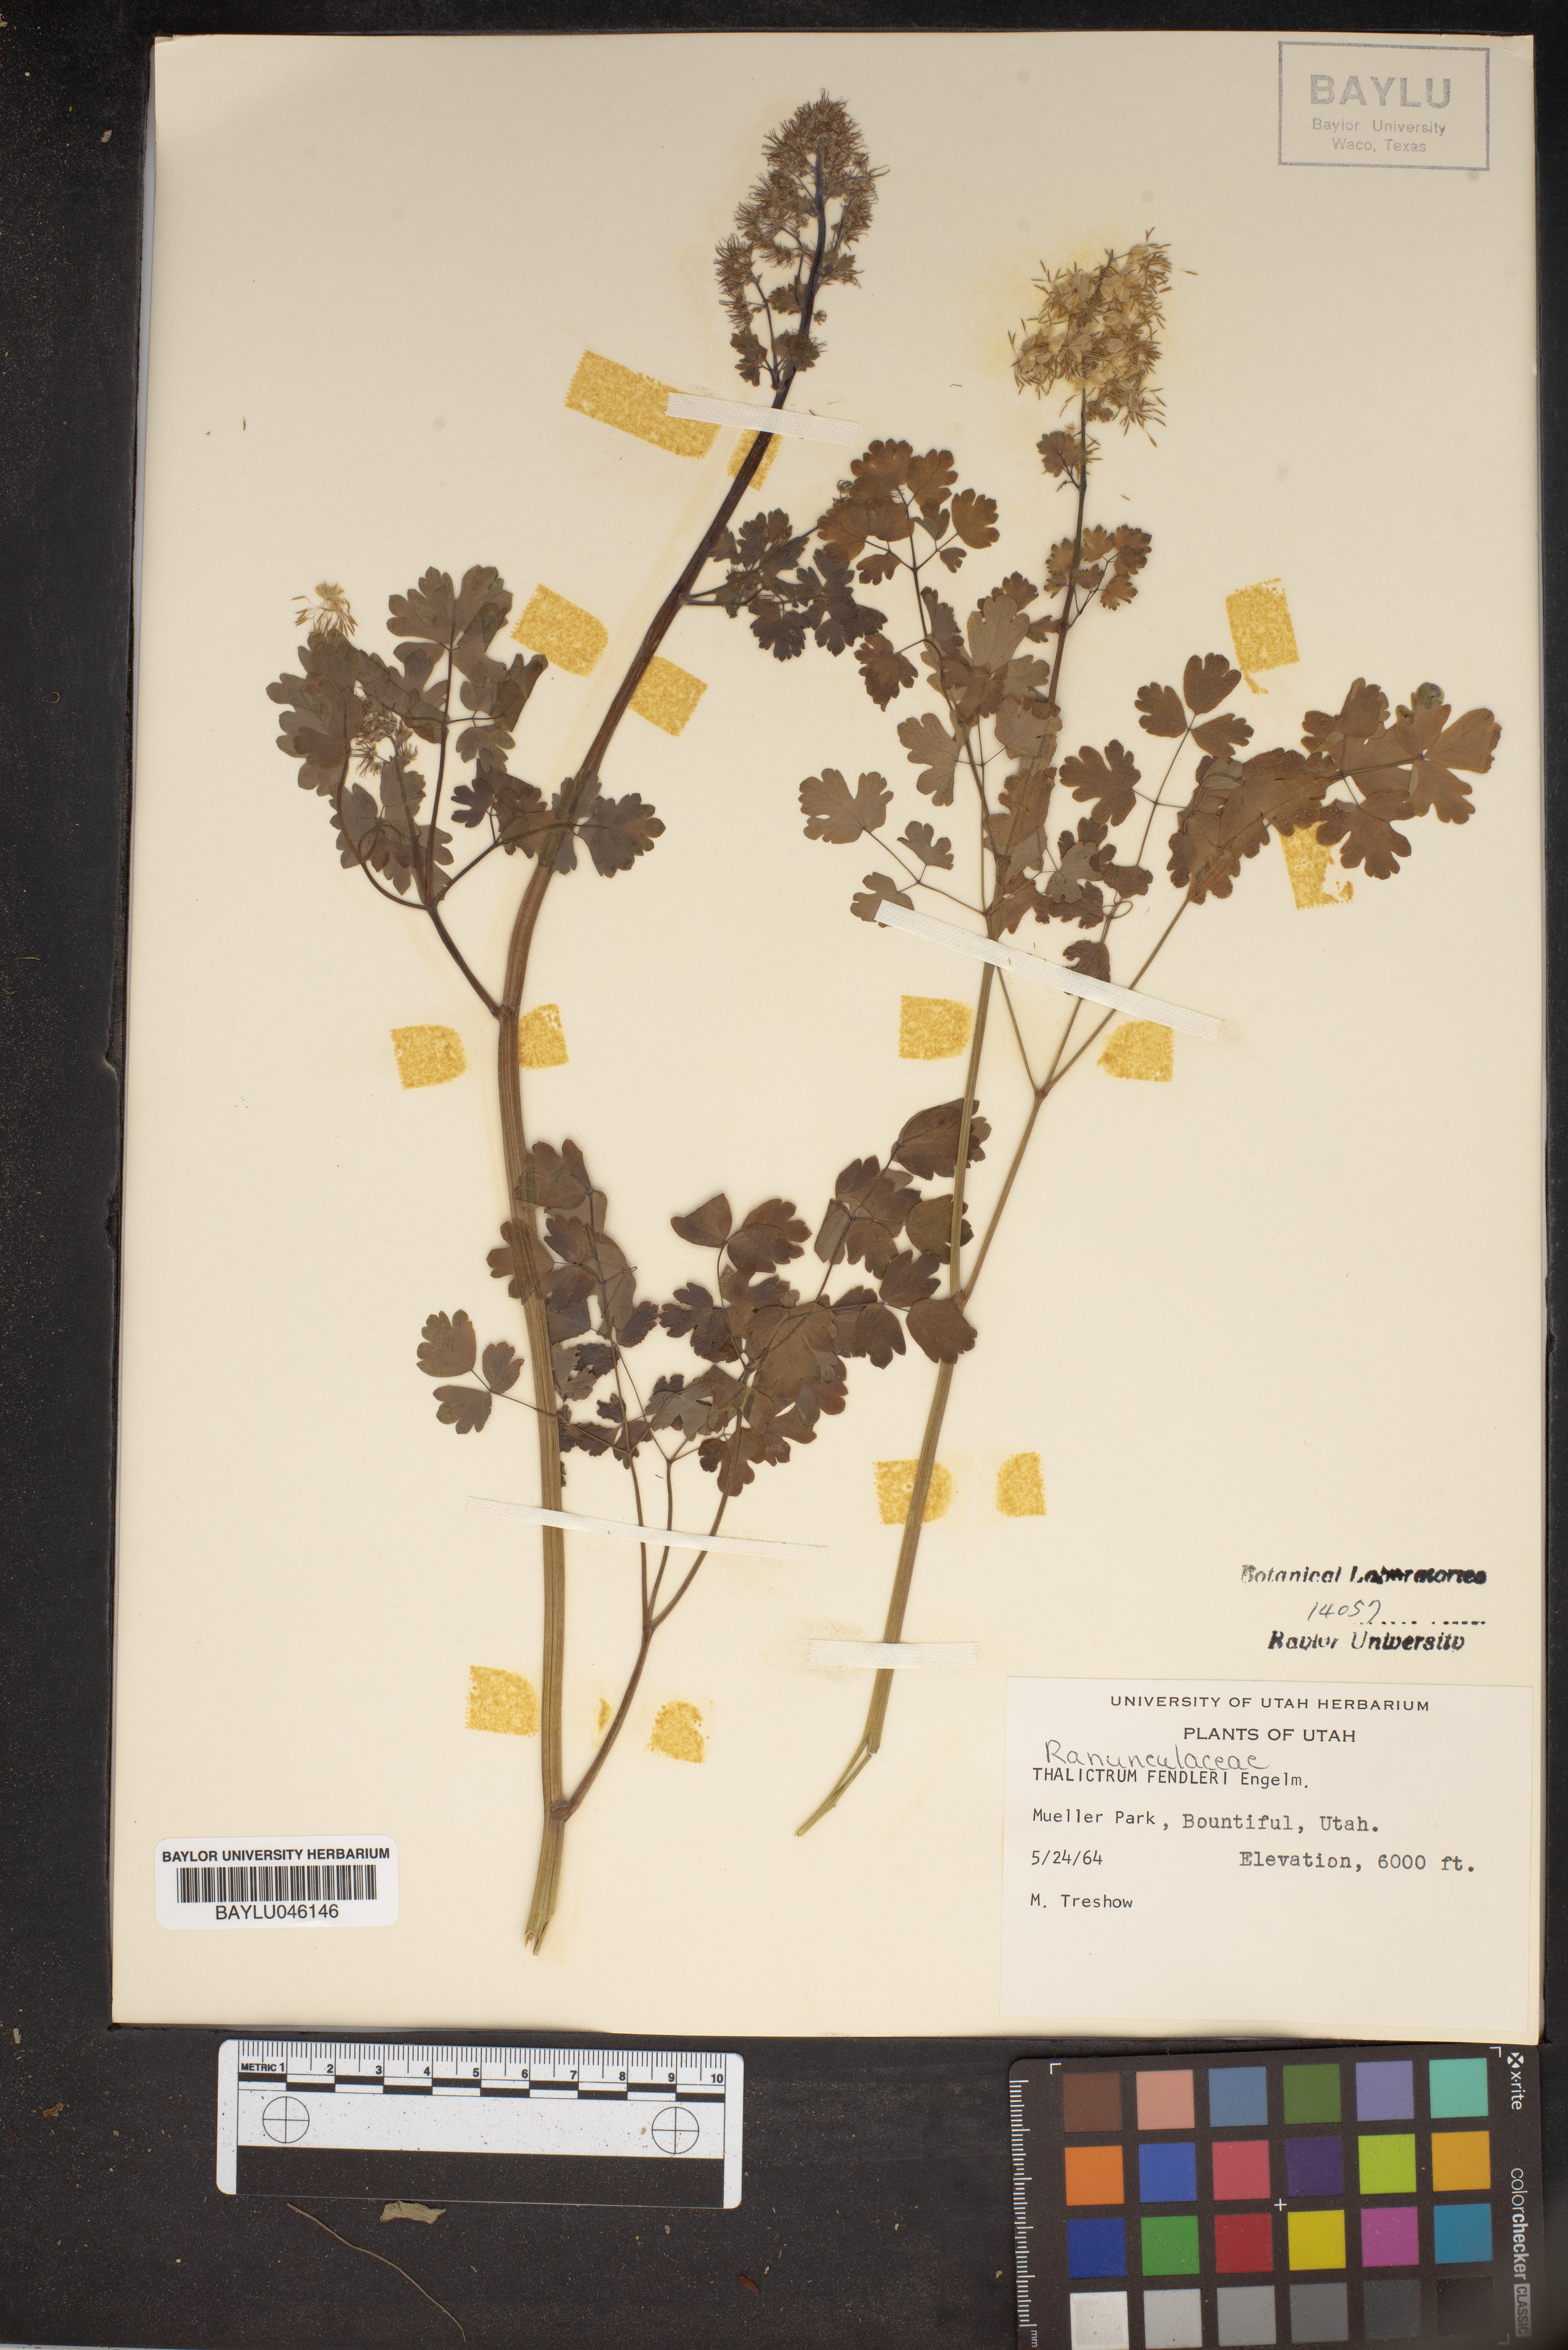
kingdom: Plantae
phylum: Tracheophyta
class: Magnoliopsida
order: Ranunculales
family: Ranunculaceae
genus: Thalictrum
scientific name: Thalictrum fendleri
